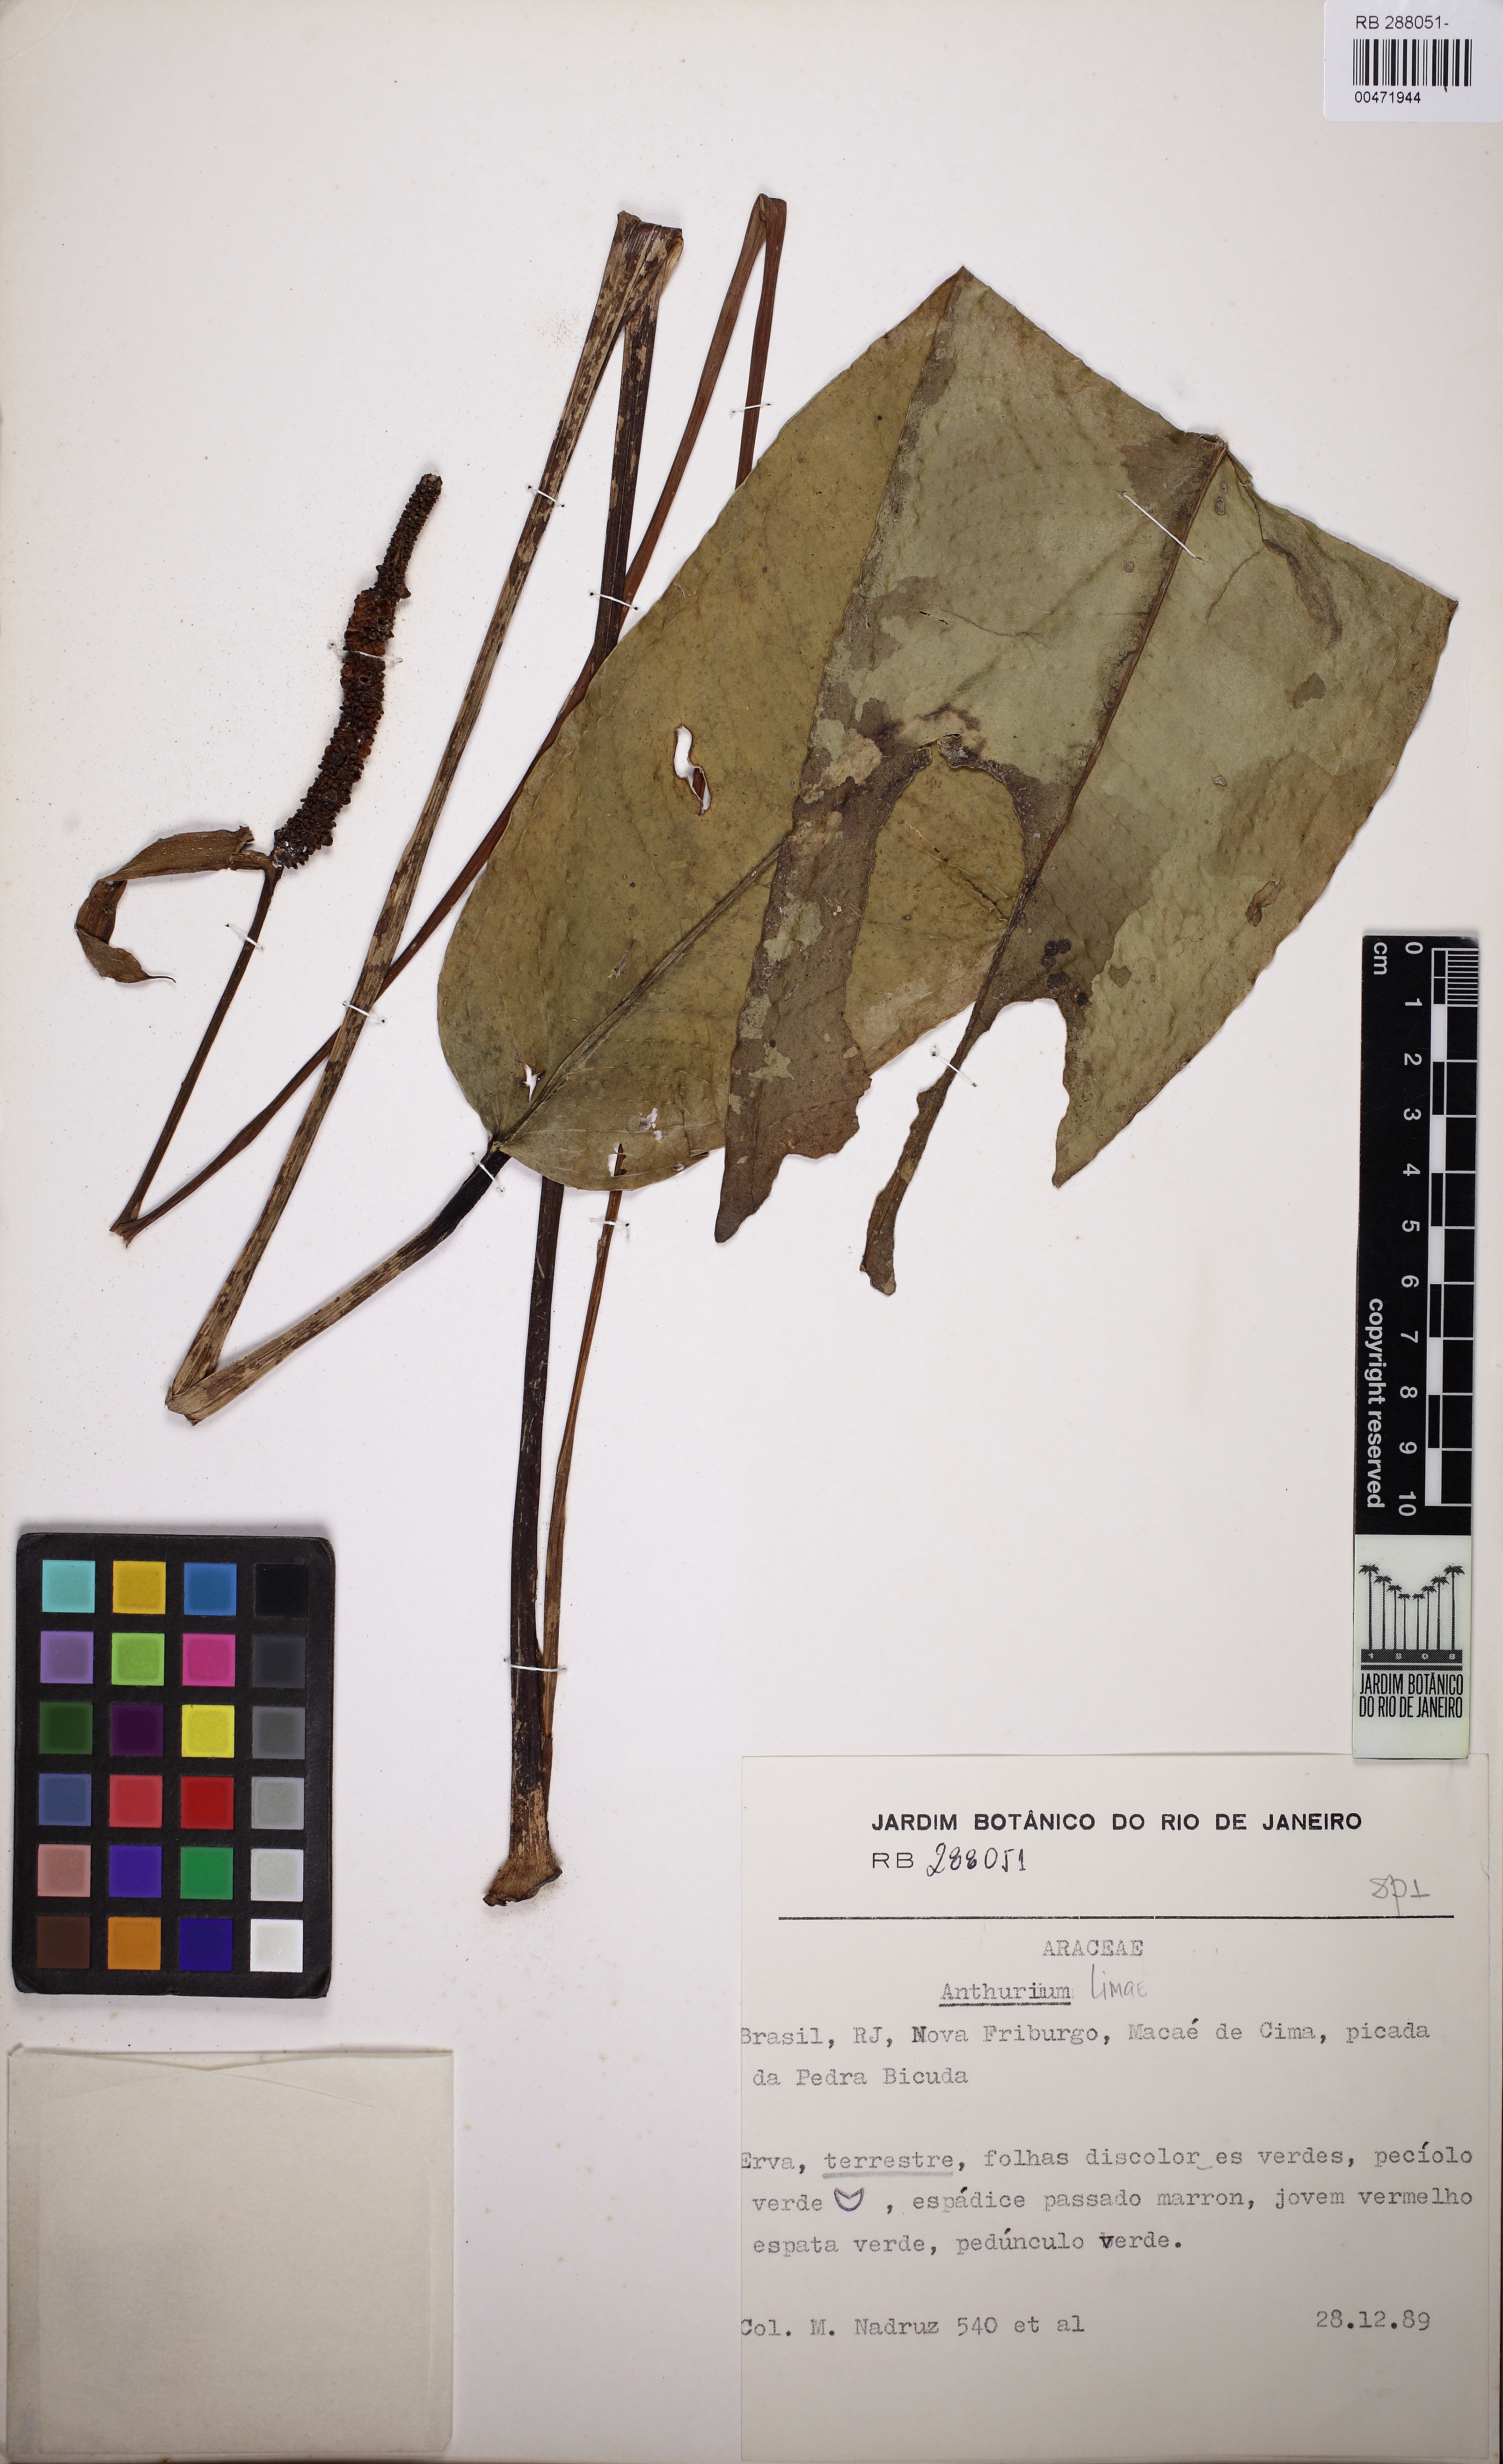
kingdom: Plantae
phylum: Tracheophyta
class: Liliopsida
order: Alismatales
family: Araceae
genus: Anthurium
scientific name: Anthurium
